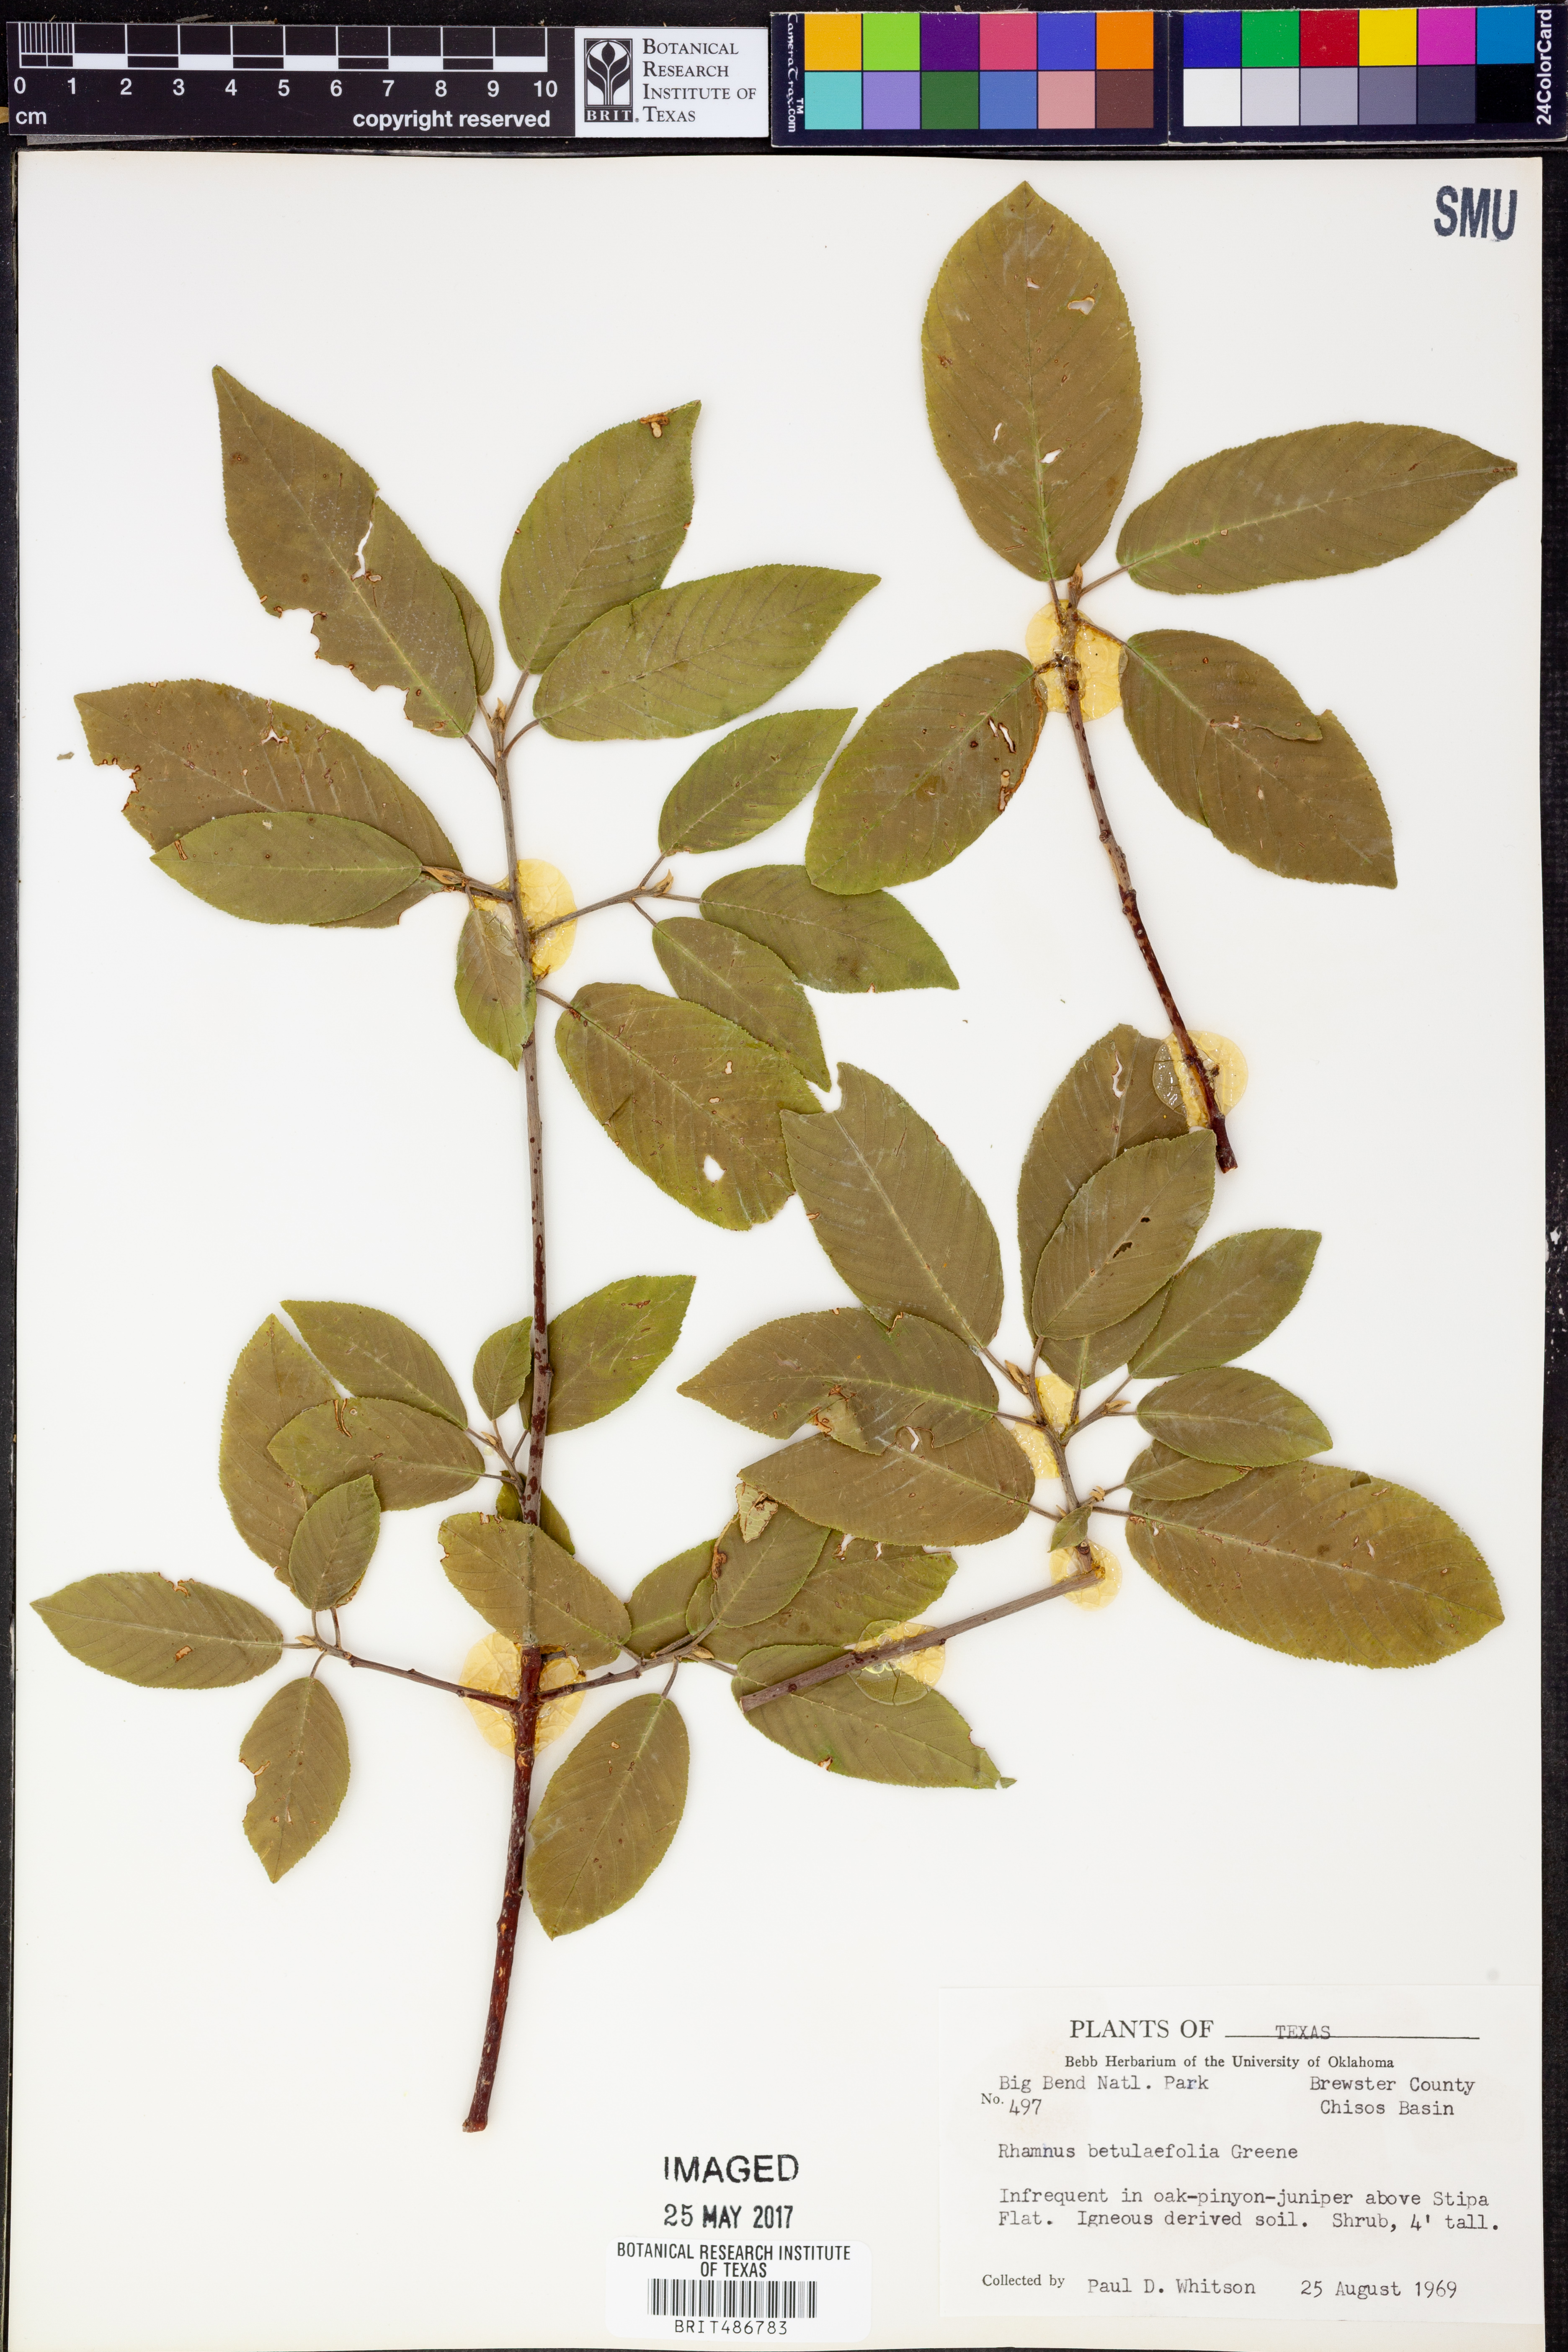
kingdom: Plantae
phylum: Tracheophyta
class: Magnoliopsida
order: Rosales
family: Rhamnaceae
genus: Frangula
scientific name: Frangula betulifolia
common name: Birch-leaf buckthorn
